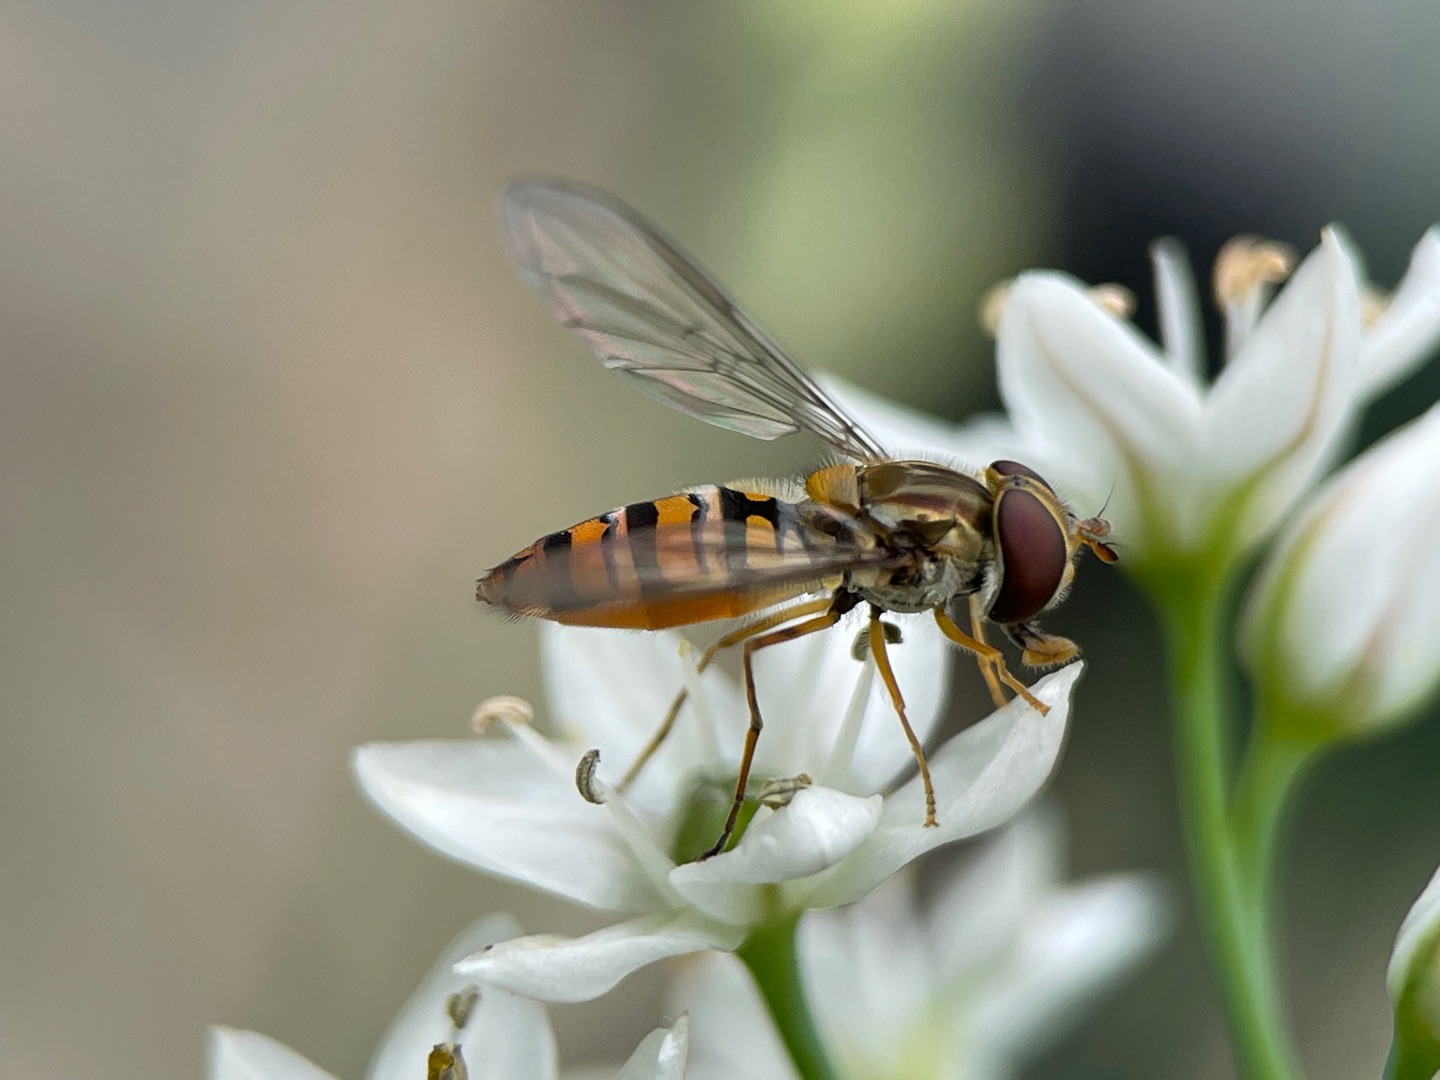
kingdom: Animalia
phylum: Arthropoda
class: Insecta
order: Diptera
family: Syrphidae
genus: Episyrphus
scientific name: Episyrphus balteatus
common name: Dobbeltbåndet svirreflue
